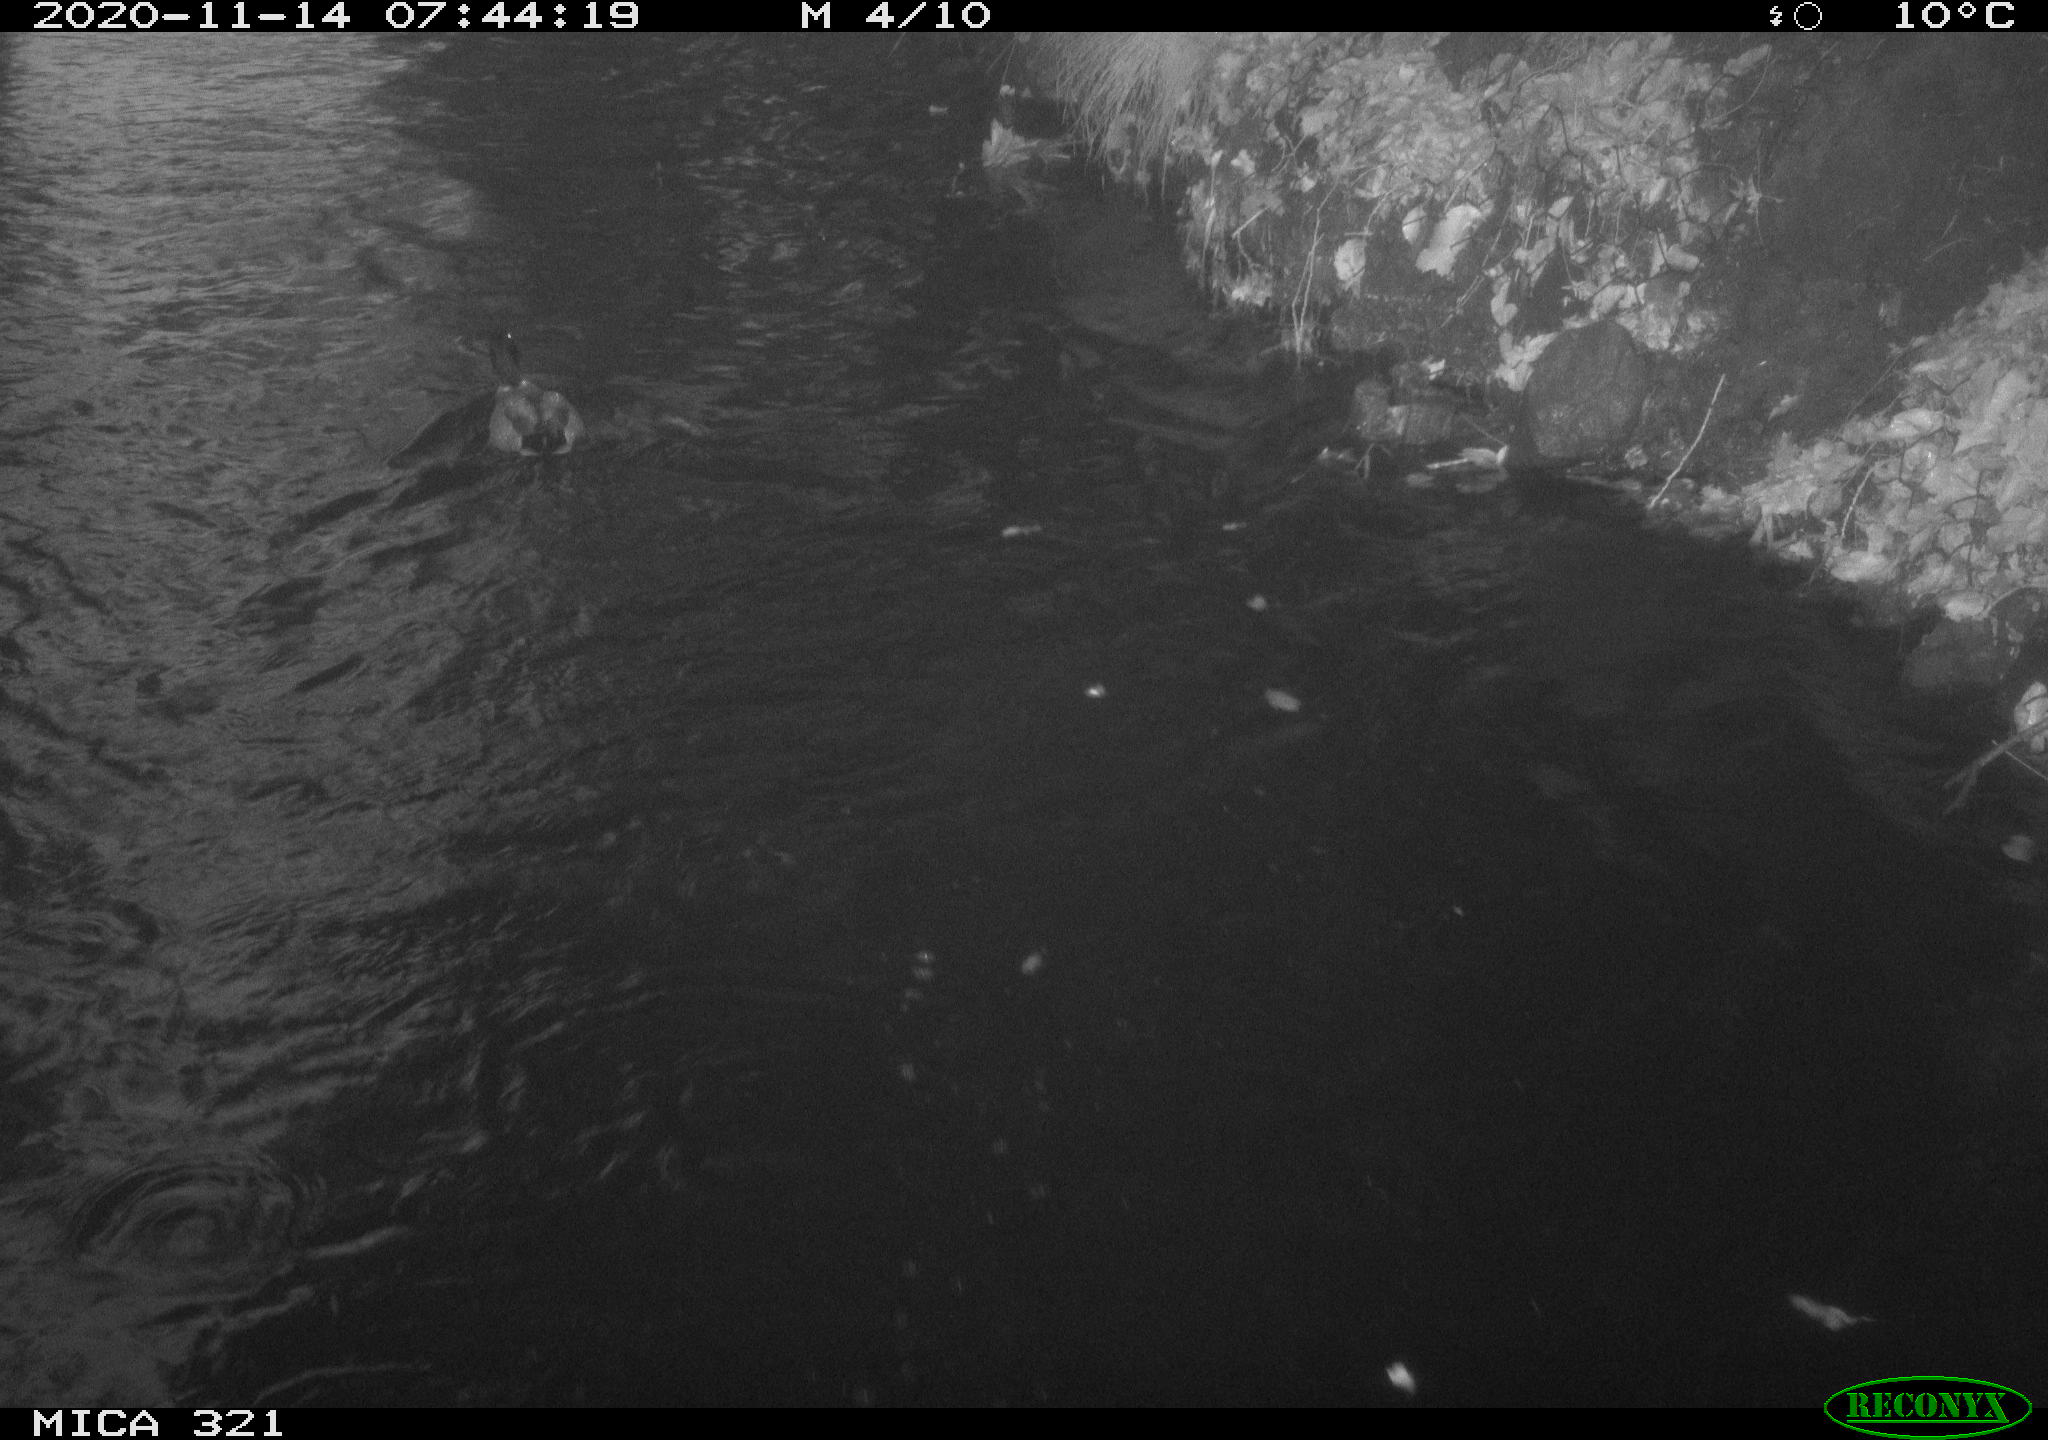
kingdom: Animalia
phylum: Chordata
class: Aves
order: Anseriformes
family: Anatidae
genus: Anas
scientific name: Anas platyrhynchos
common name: Mallard
